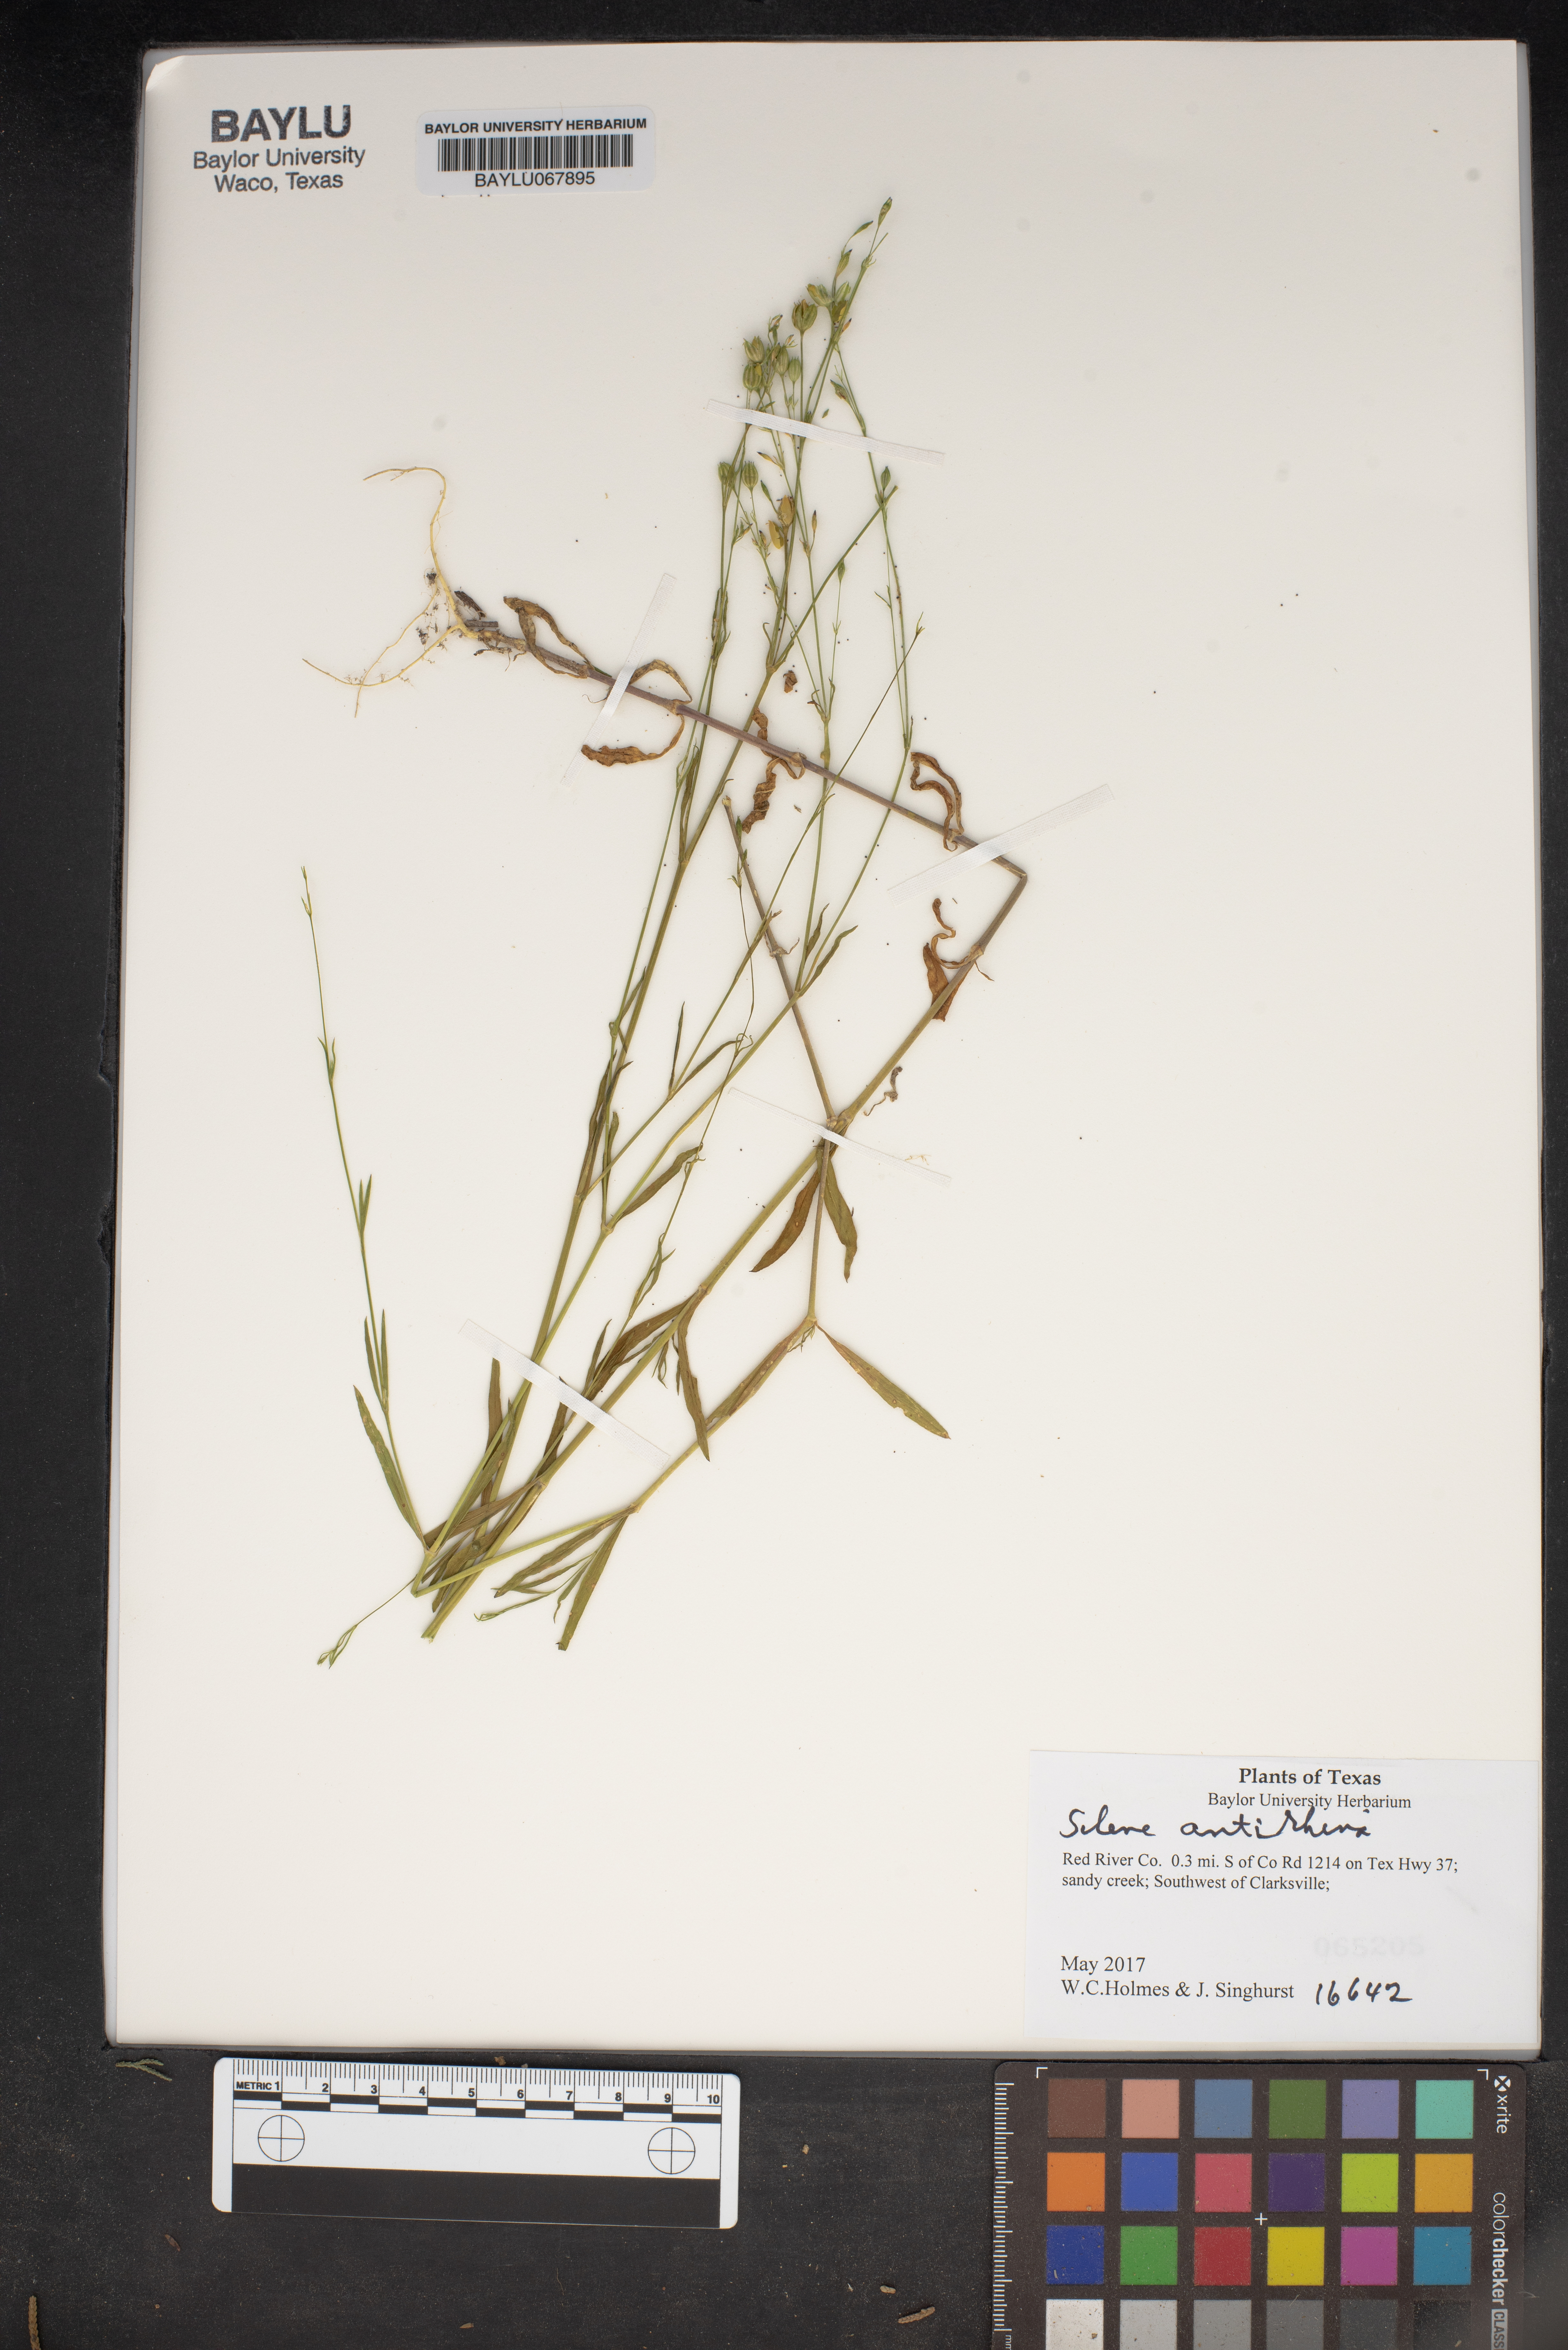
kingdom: Plantae
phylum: Tracheophyta
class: Magnoliopsida
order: Caryophyllales
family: Caryophyllaceae
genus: Silene
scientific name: Silene antirrhina
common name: Sleepy catchfly
